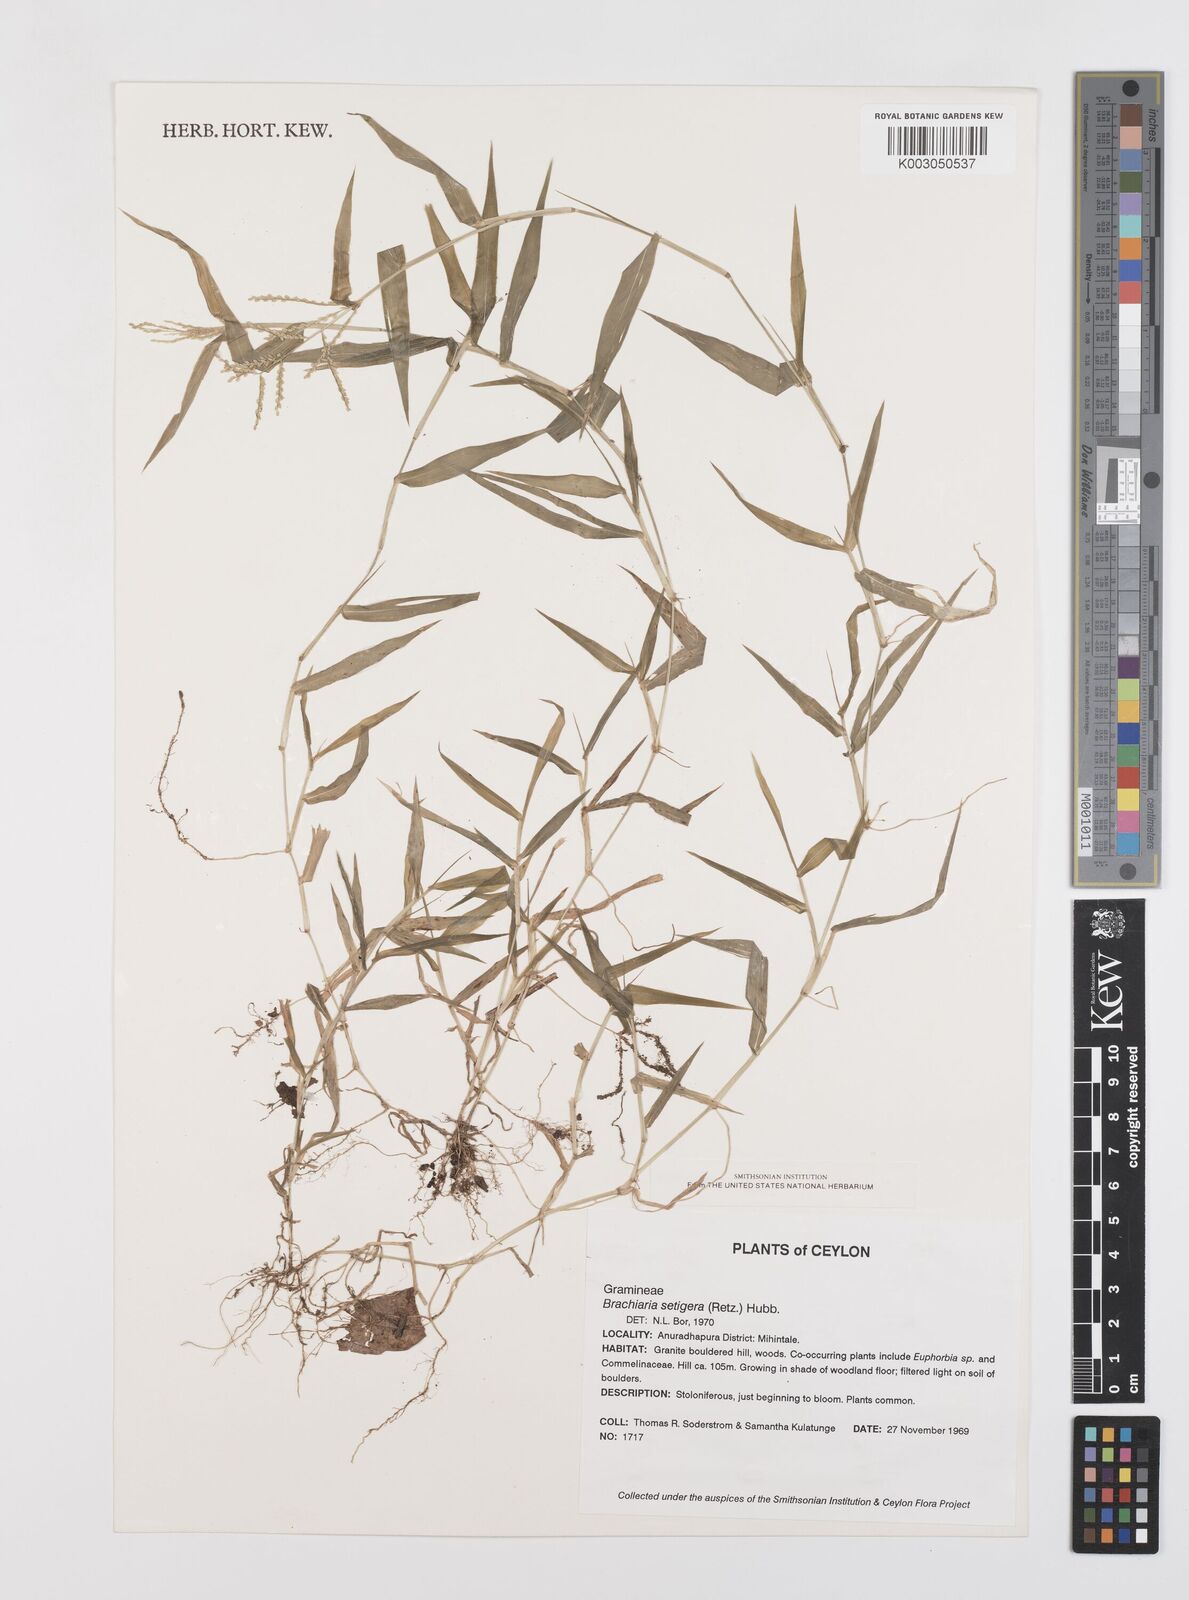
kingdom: Plantae
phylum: Tracheophyta
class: Liliopsida
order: Poales
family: Poaceae
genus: Urochloa
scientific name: Urochloa reptans
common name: Sprawling signalgrass
